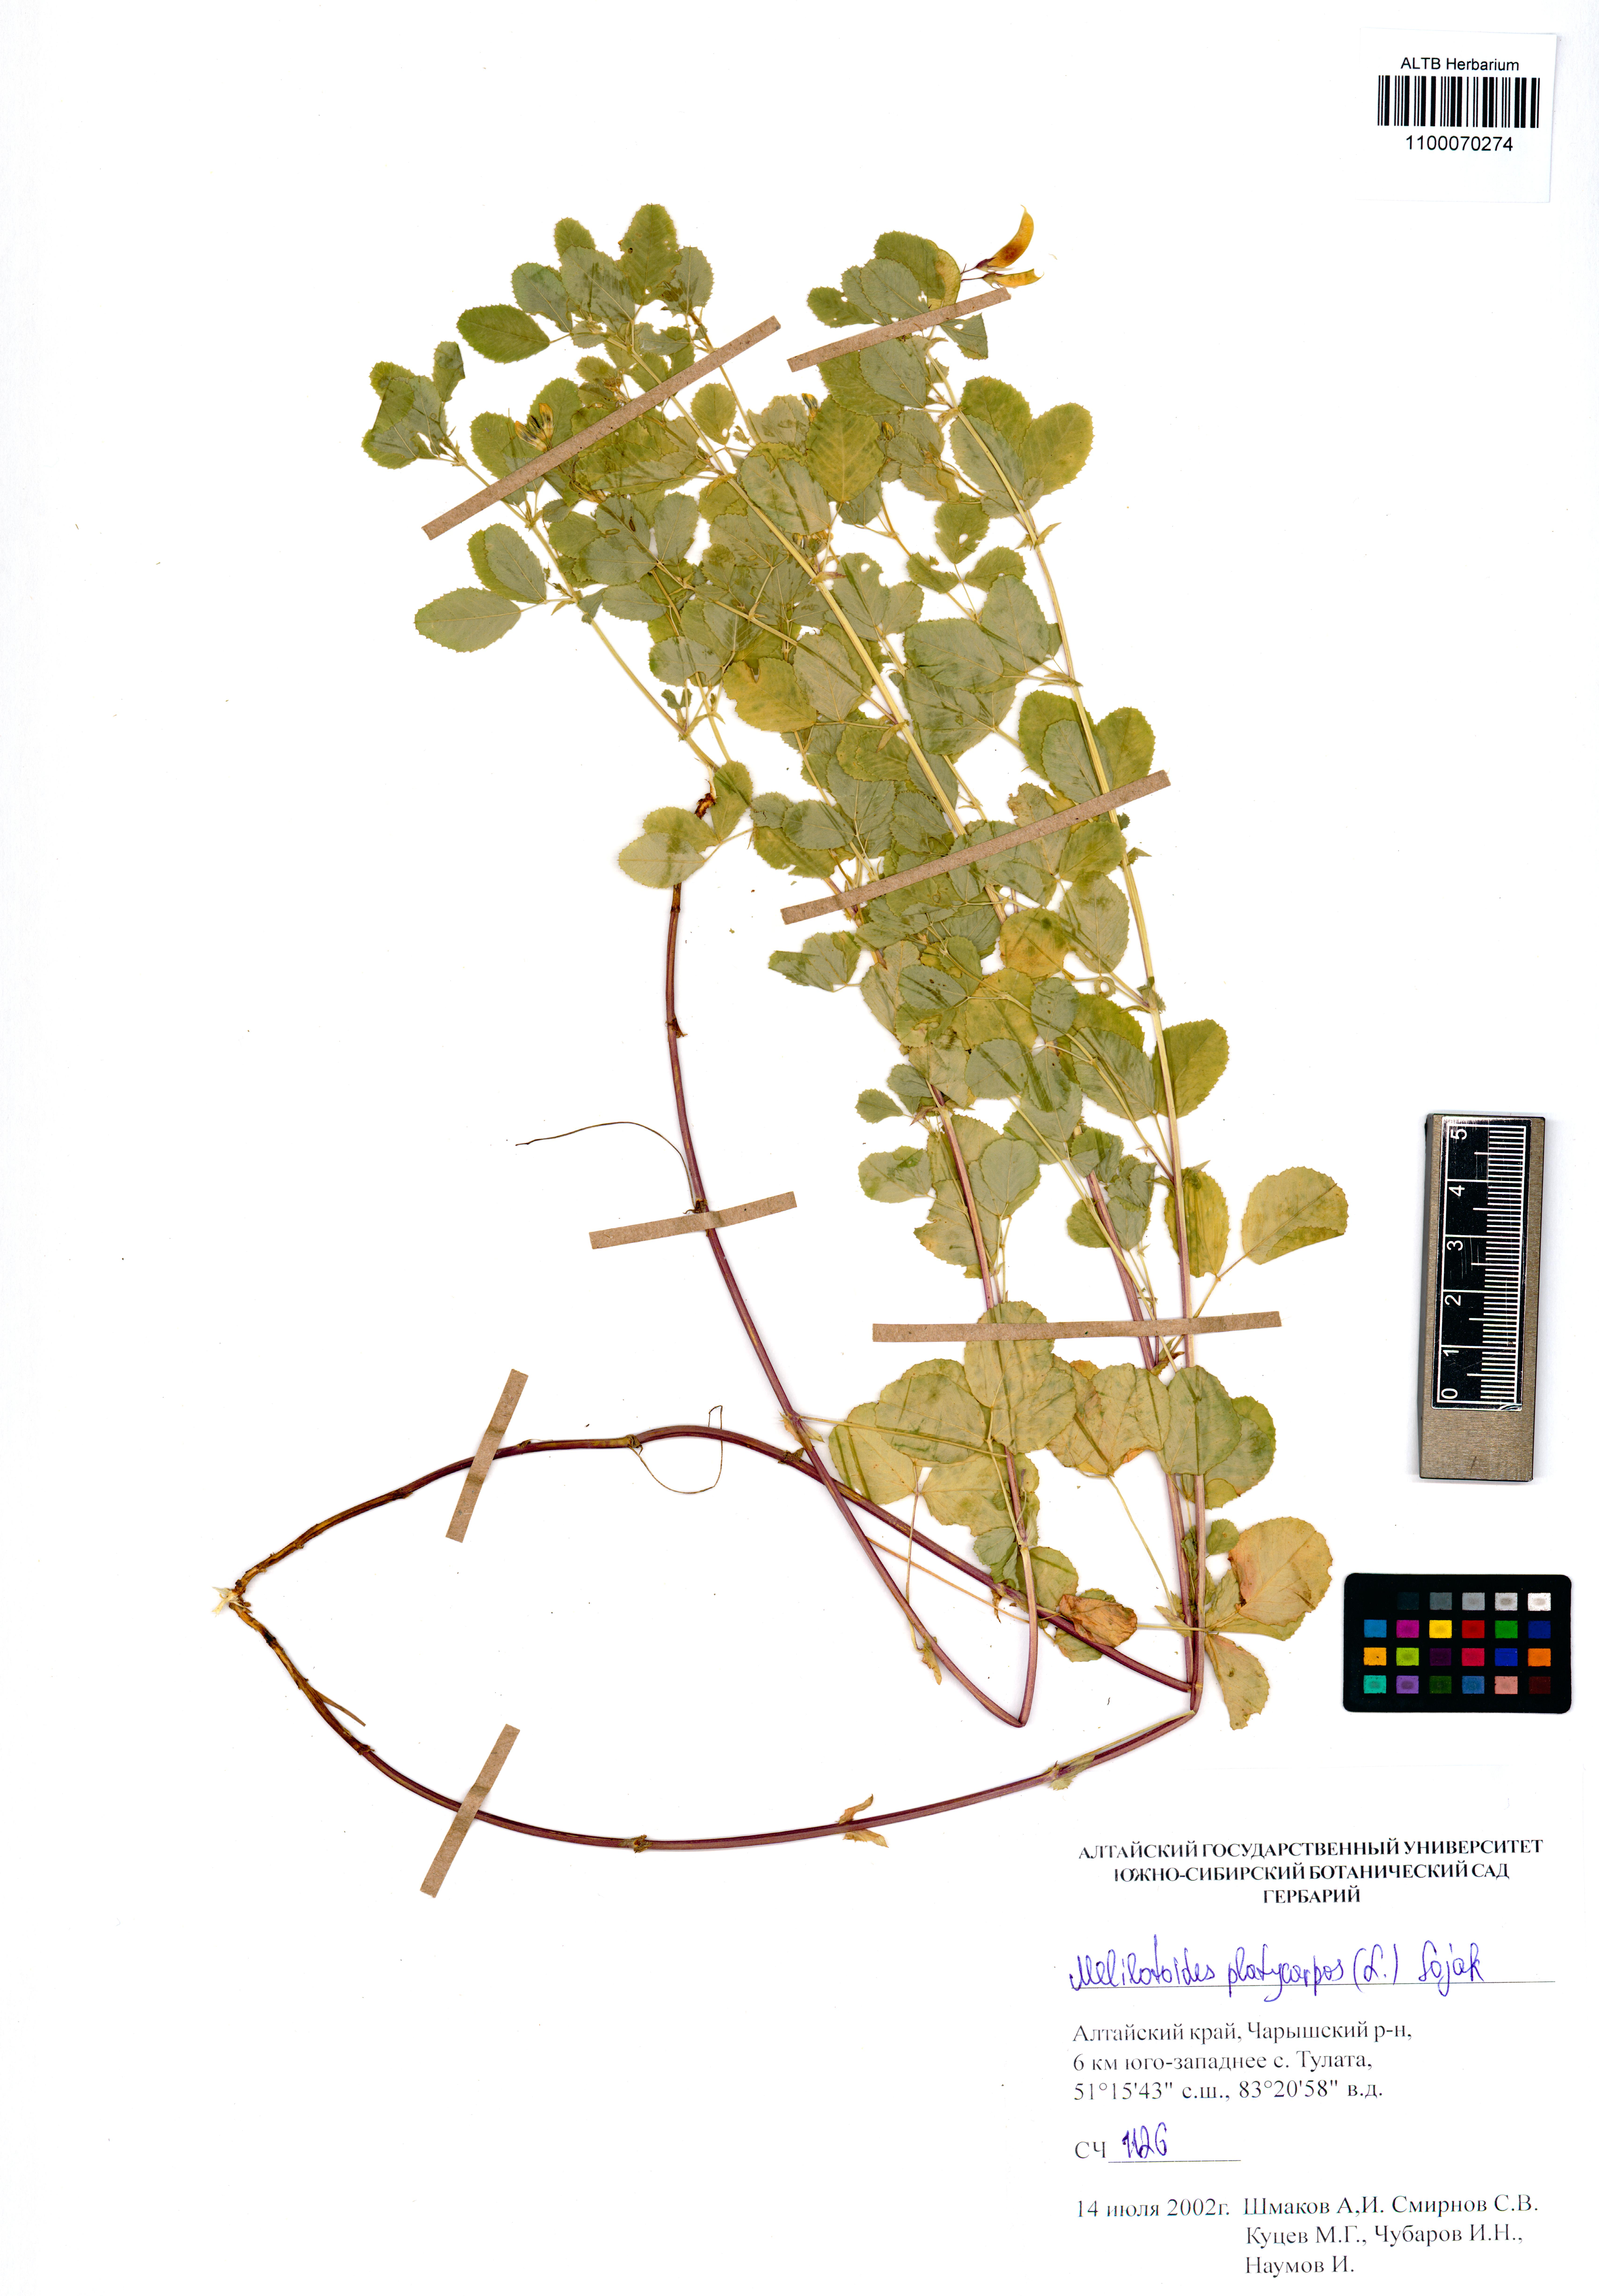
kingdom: Plantae
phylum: Tracheophyta
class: Magnoliopsida
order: Fabales
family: Fabaceae
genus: Medicago
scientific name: Medicago platycarpos
